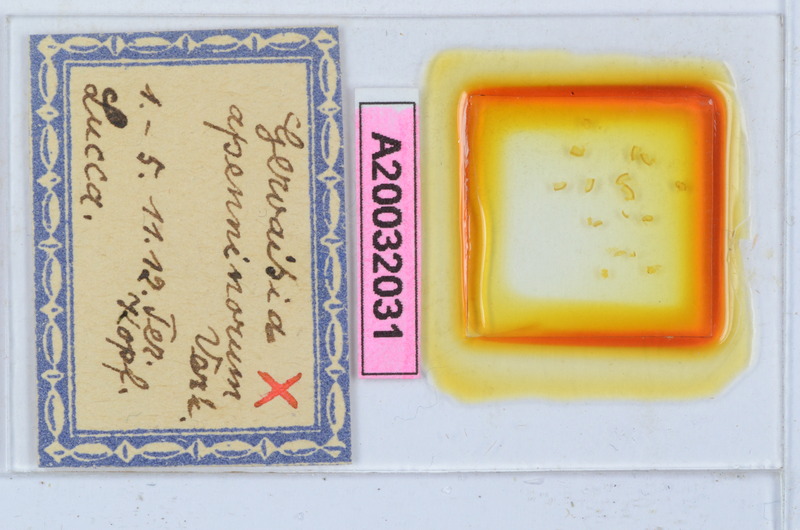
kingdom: Animalia
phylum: Arthropoda
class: Diplopoda
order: Glomerida
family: Glomeridae
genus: Trachysphaera
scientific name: Trachysphaera apenninorum
